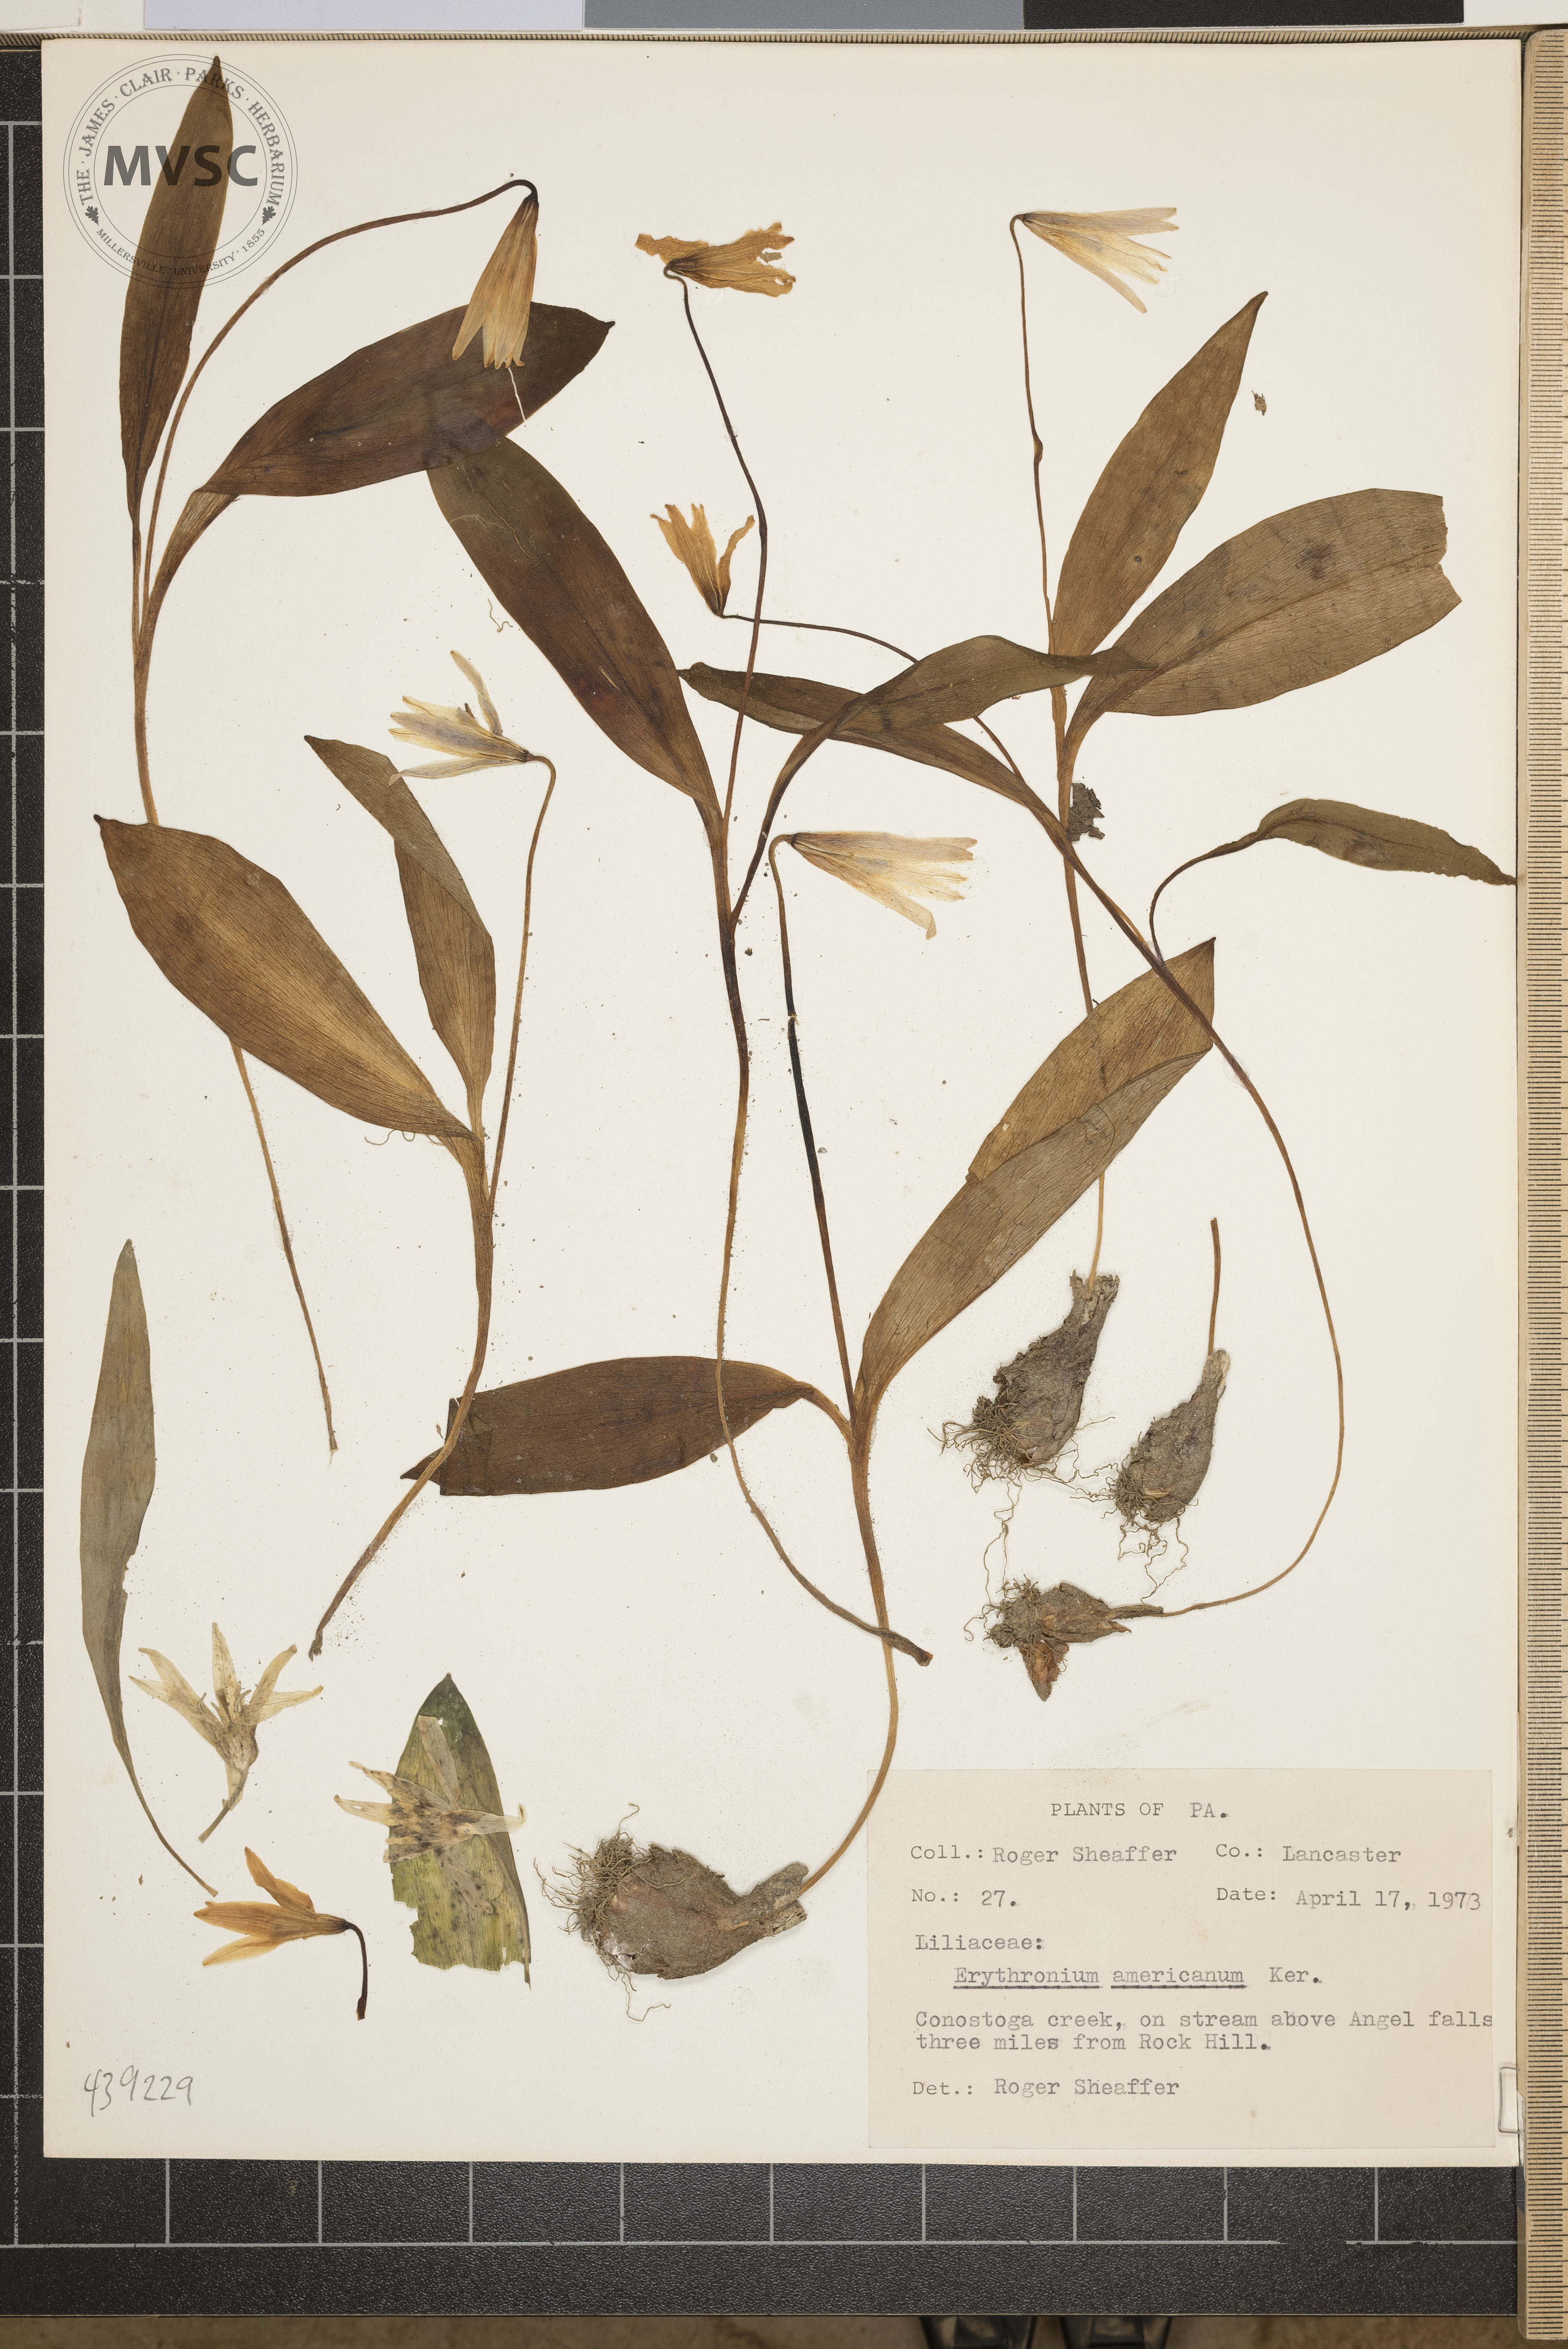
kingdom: Plantae
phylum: Tracheophyta
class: Liliopsida
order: Liliales
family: Liliaceae
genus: Erythronium
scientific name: Erythronium americanum
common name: Yellow adder's-tongue
